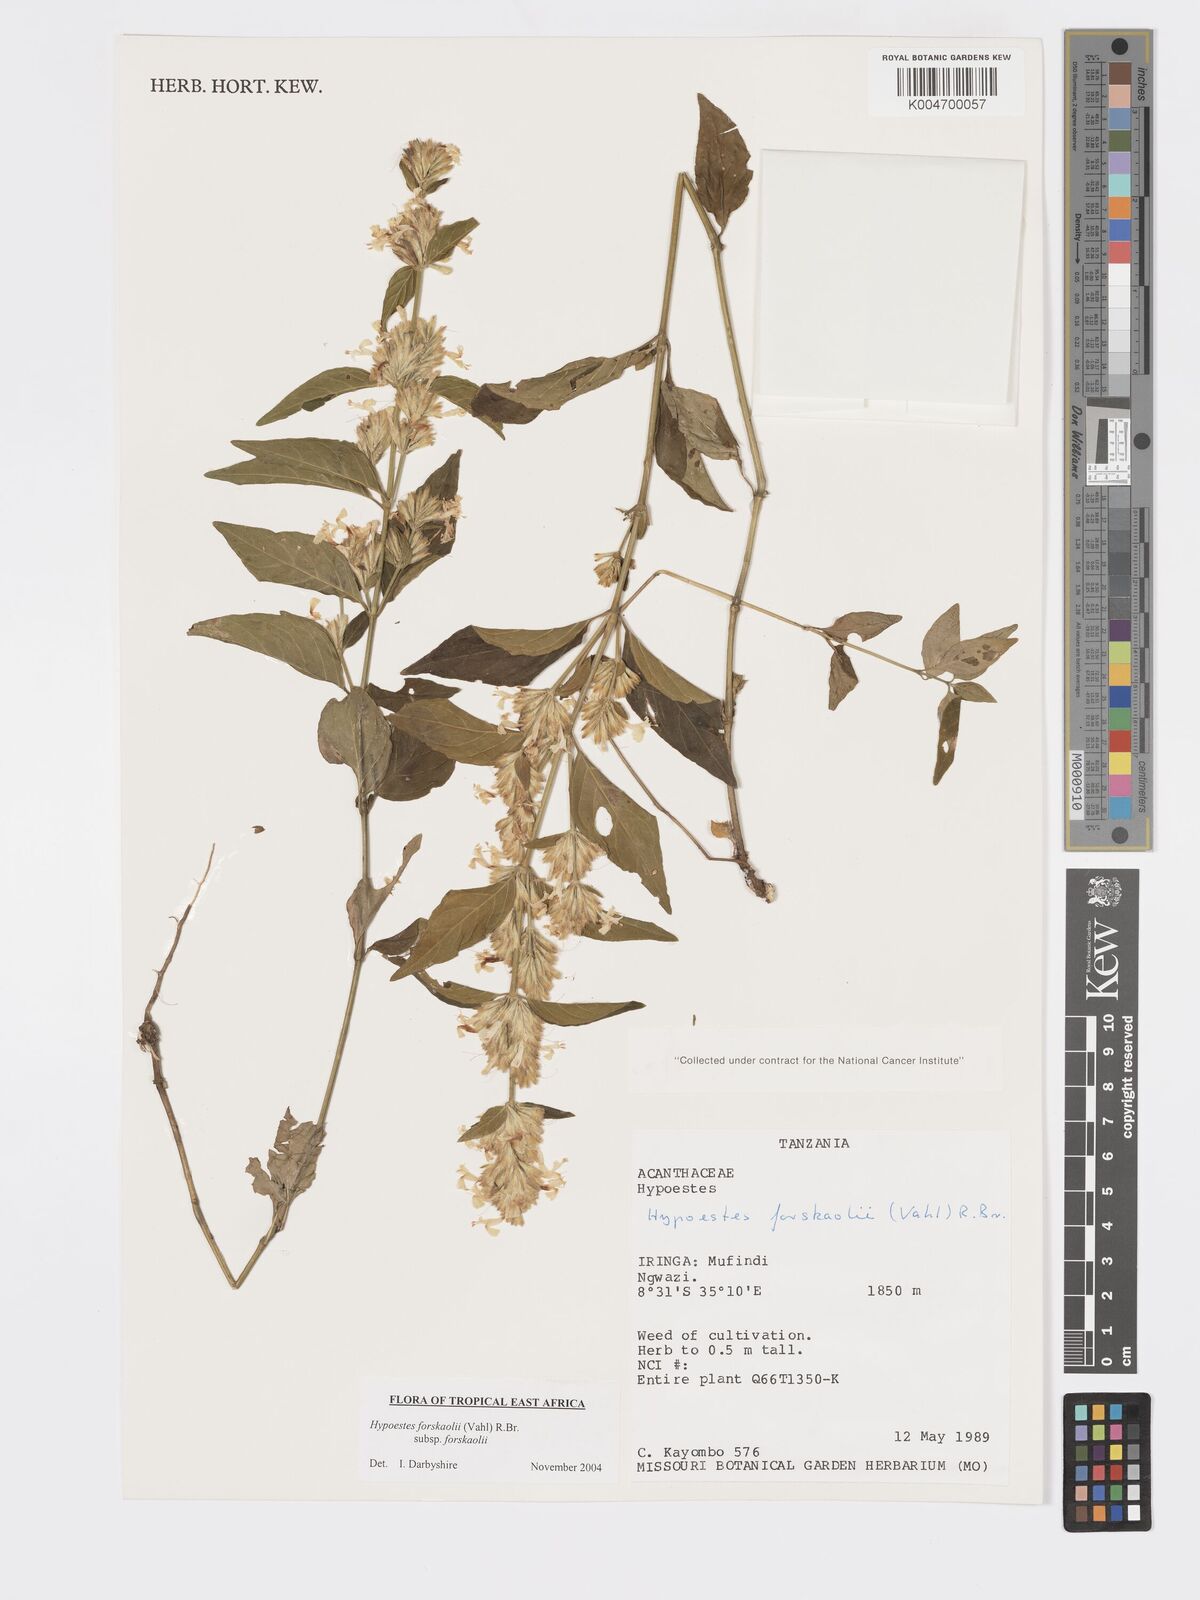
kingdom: Plantae
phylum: Tracheophyta
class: Magnoliopsida
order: Lamiales
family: Acanthaceae
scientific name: Acanthaceae
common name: Acanthaceae
